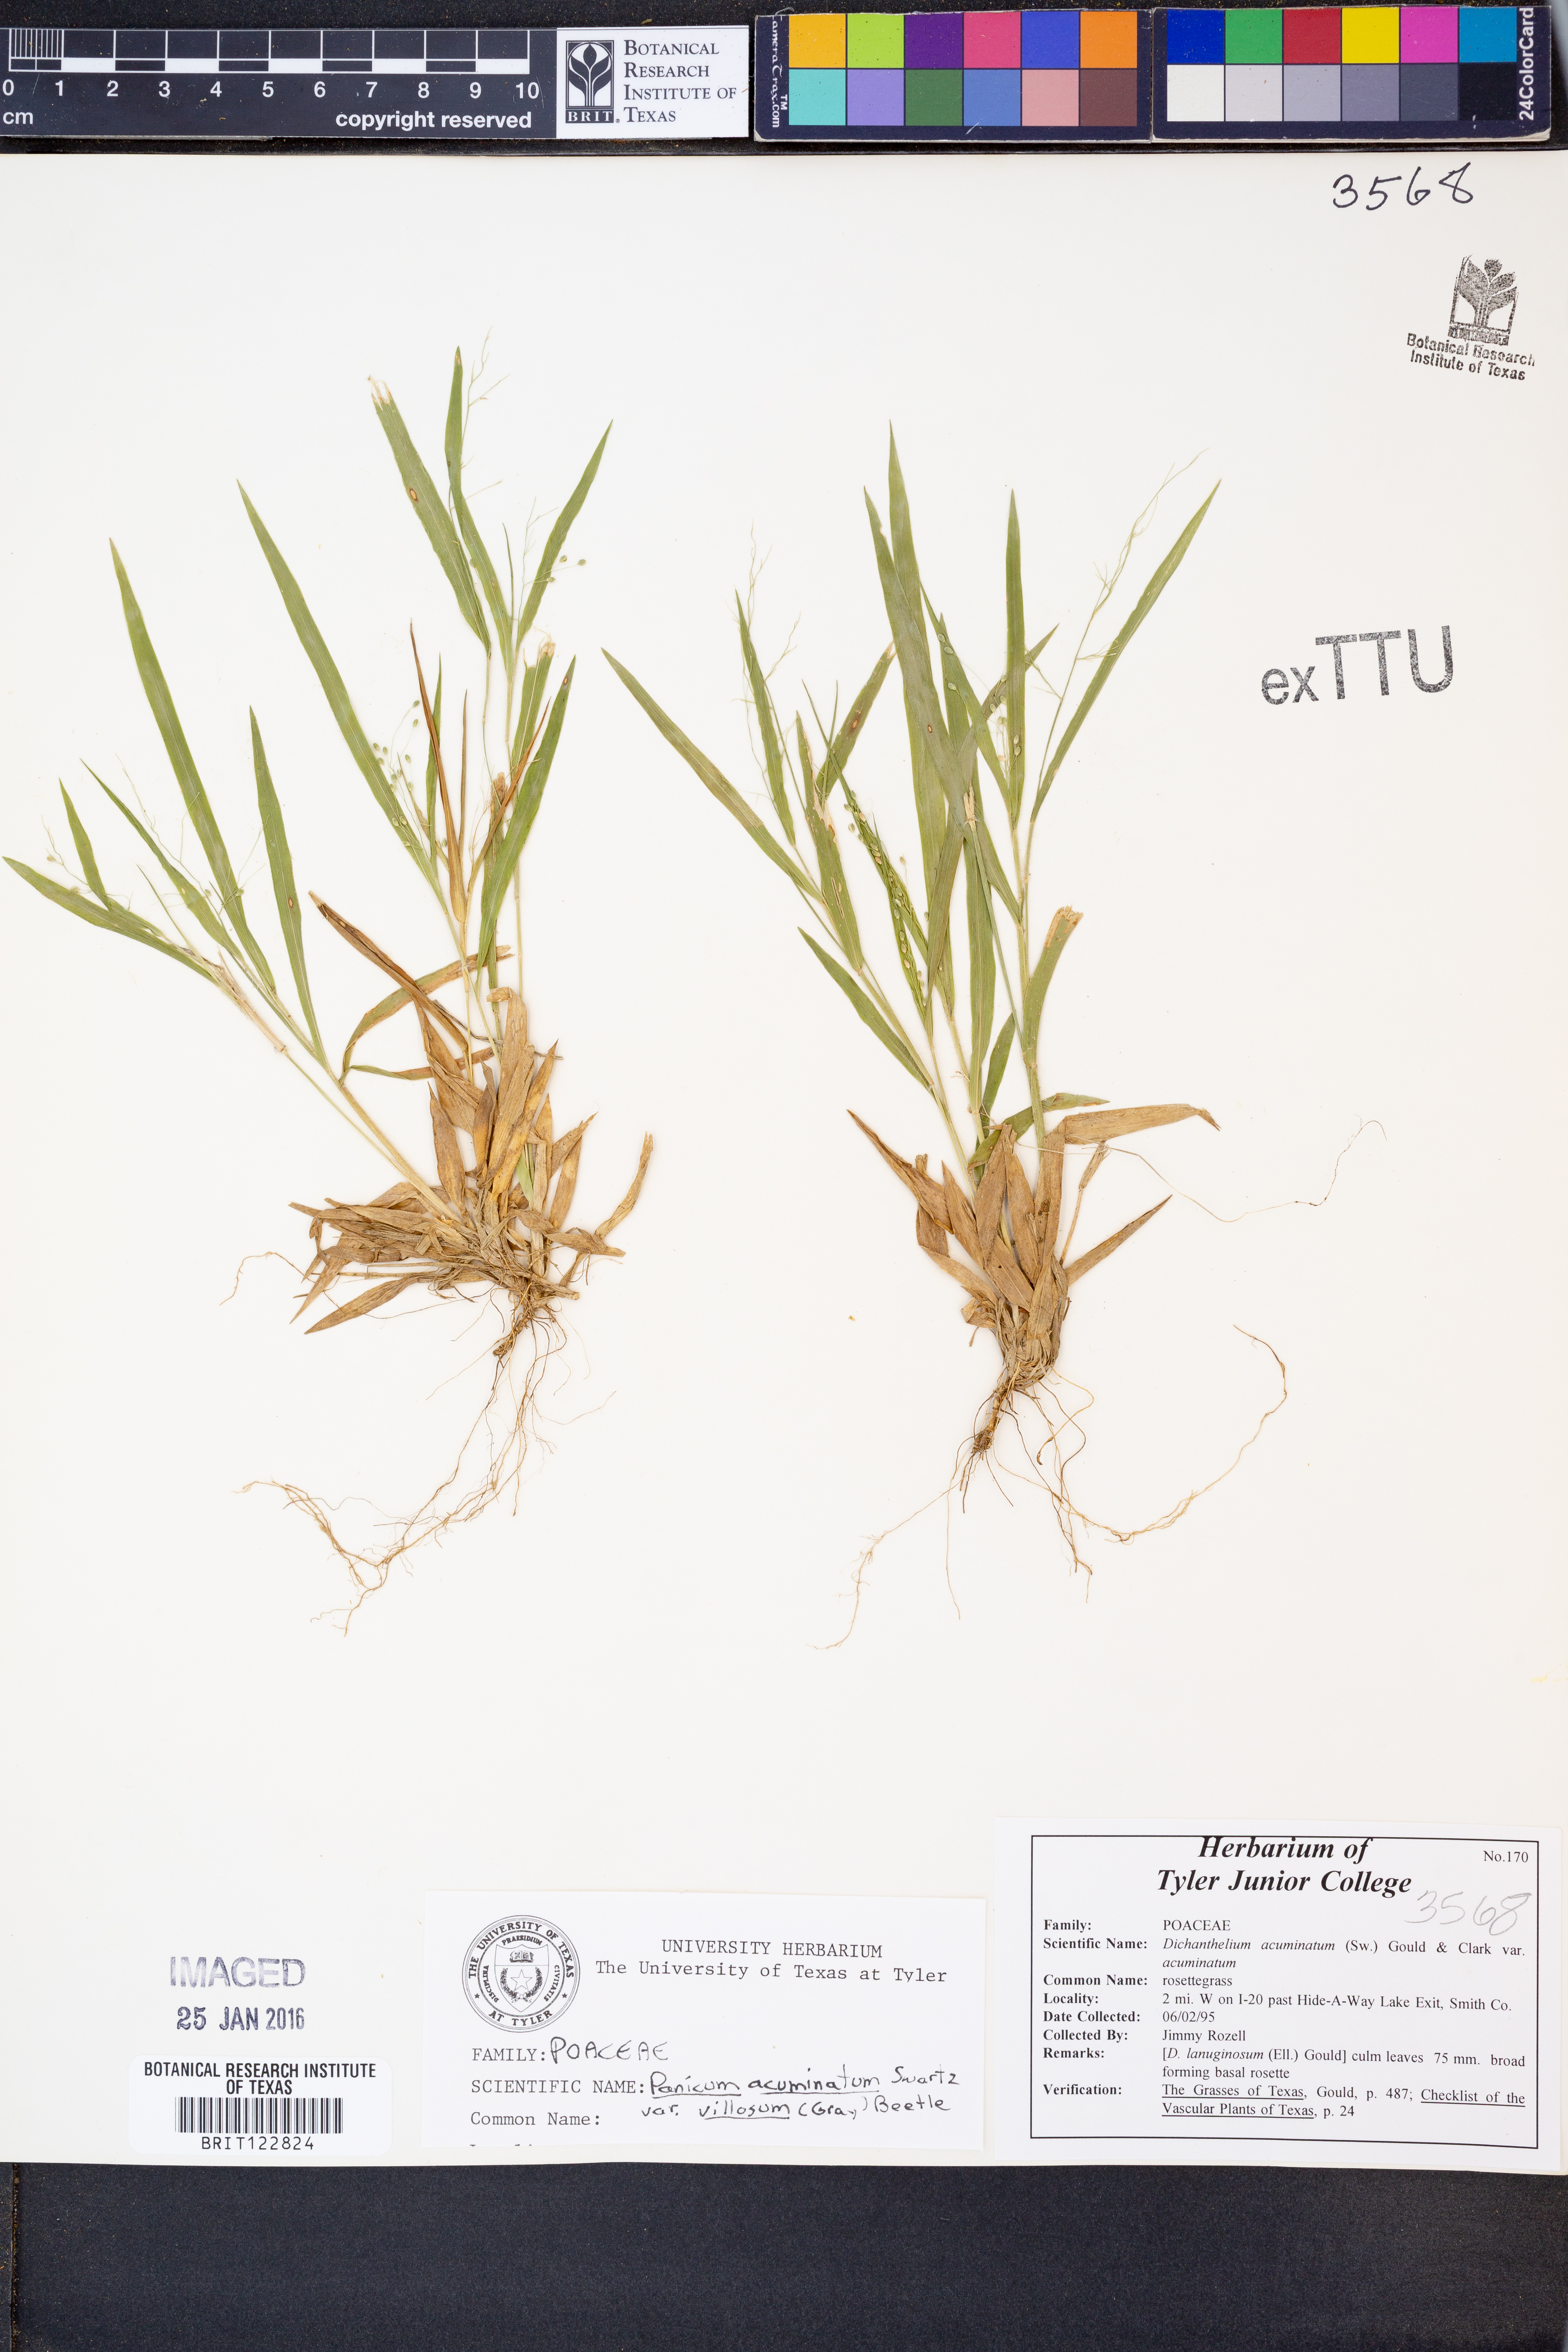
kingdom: Plantae
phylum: Tracheophyta
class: Liliopsida
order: Poales
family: Poaceae
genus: Dichanthelium
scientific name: Dichanthelium villosissimum
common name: White-haired panicgrass
